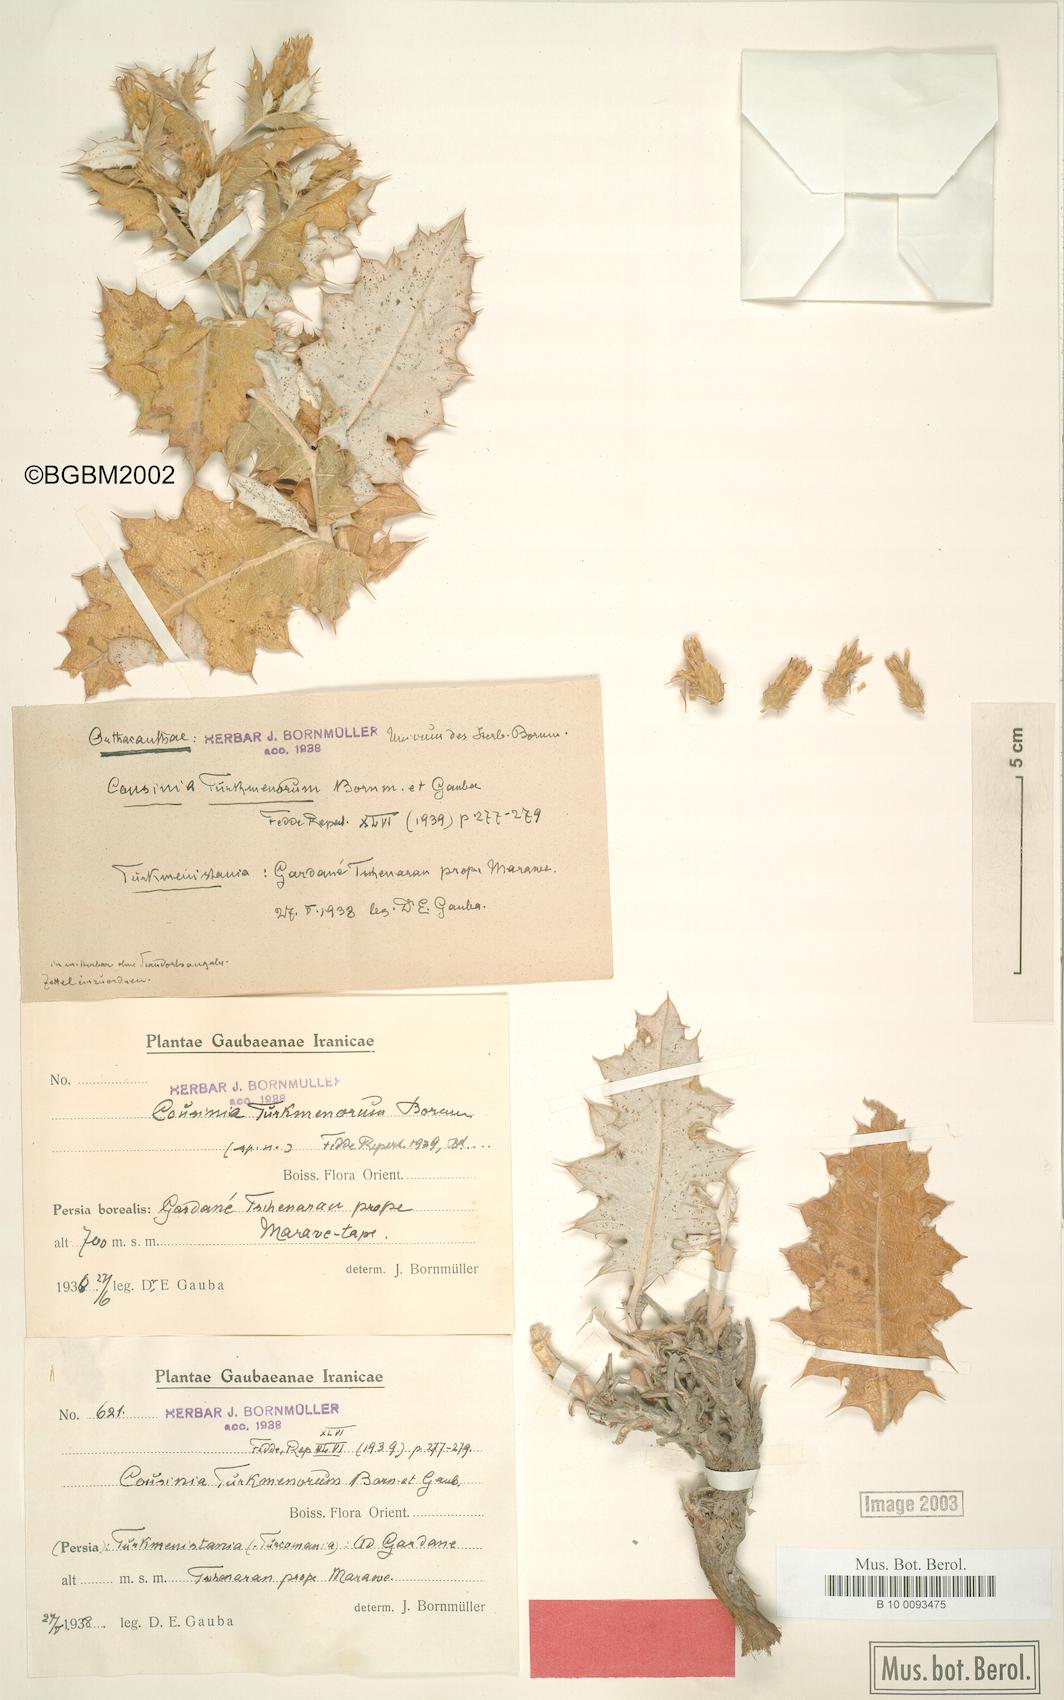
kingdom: Plantae
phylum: Tracheophyta
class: Magnoliopsida
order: Asterales
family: Asteraceae
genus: Cousinia
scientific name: Cousinia turkmenorum
